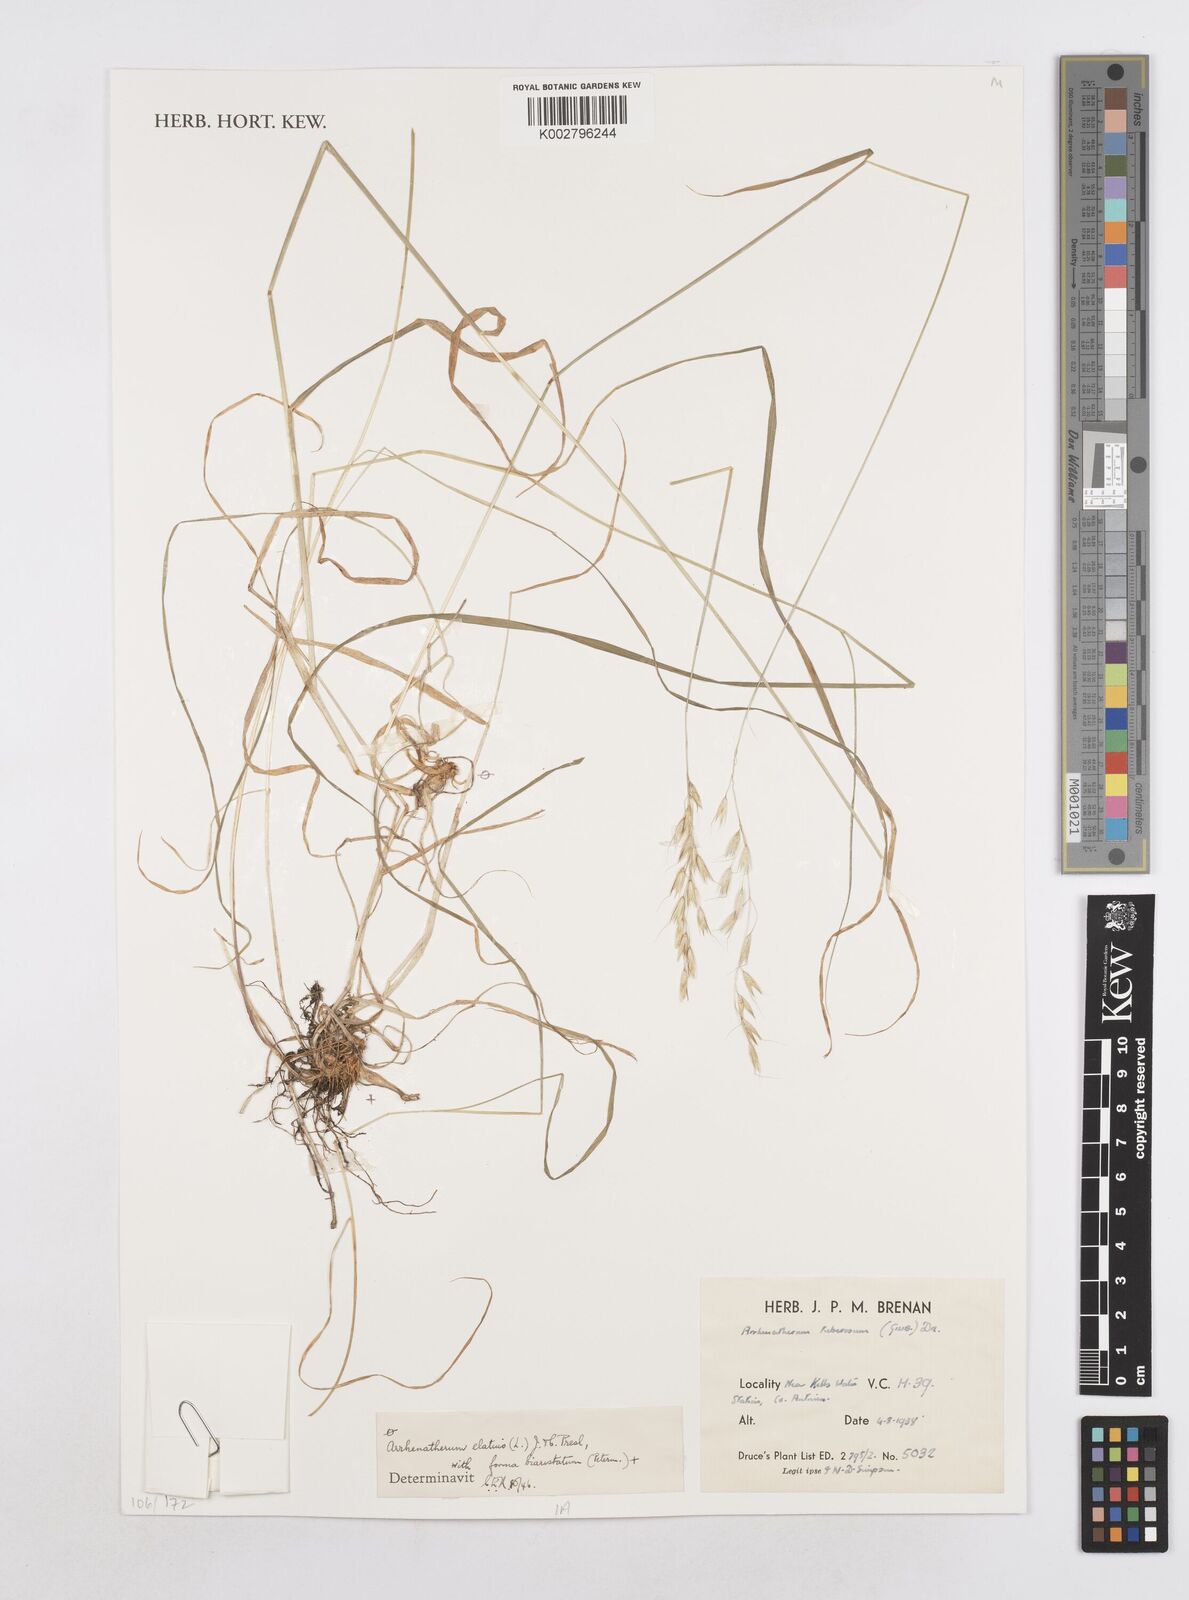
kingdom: Plantae
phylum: Tracheophyta
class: Liliopsida
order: Poales
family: Poaceae
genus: Arrhenatherum
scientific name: Arrhenatherum elatius
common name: Tall oatgrass
